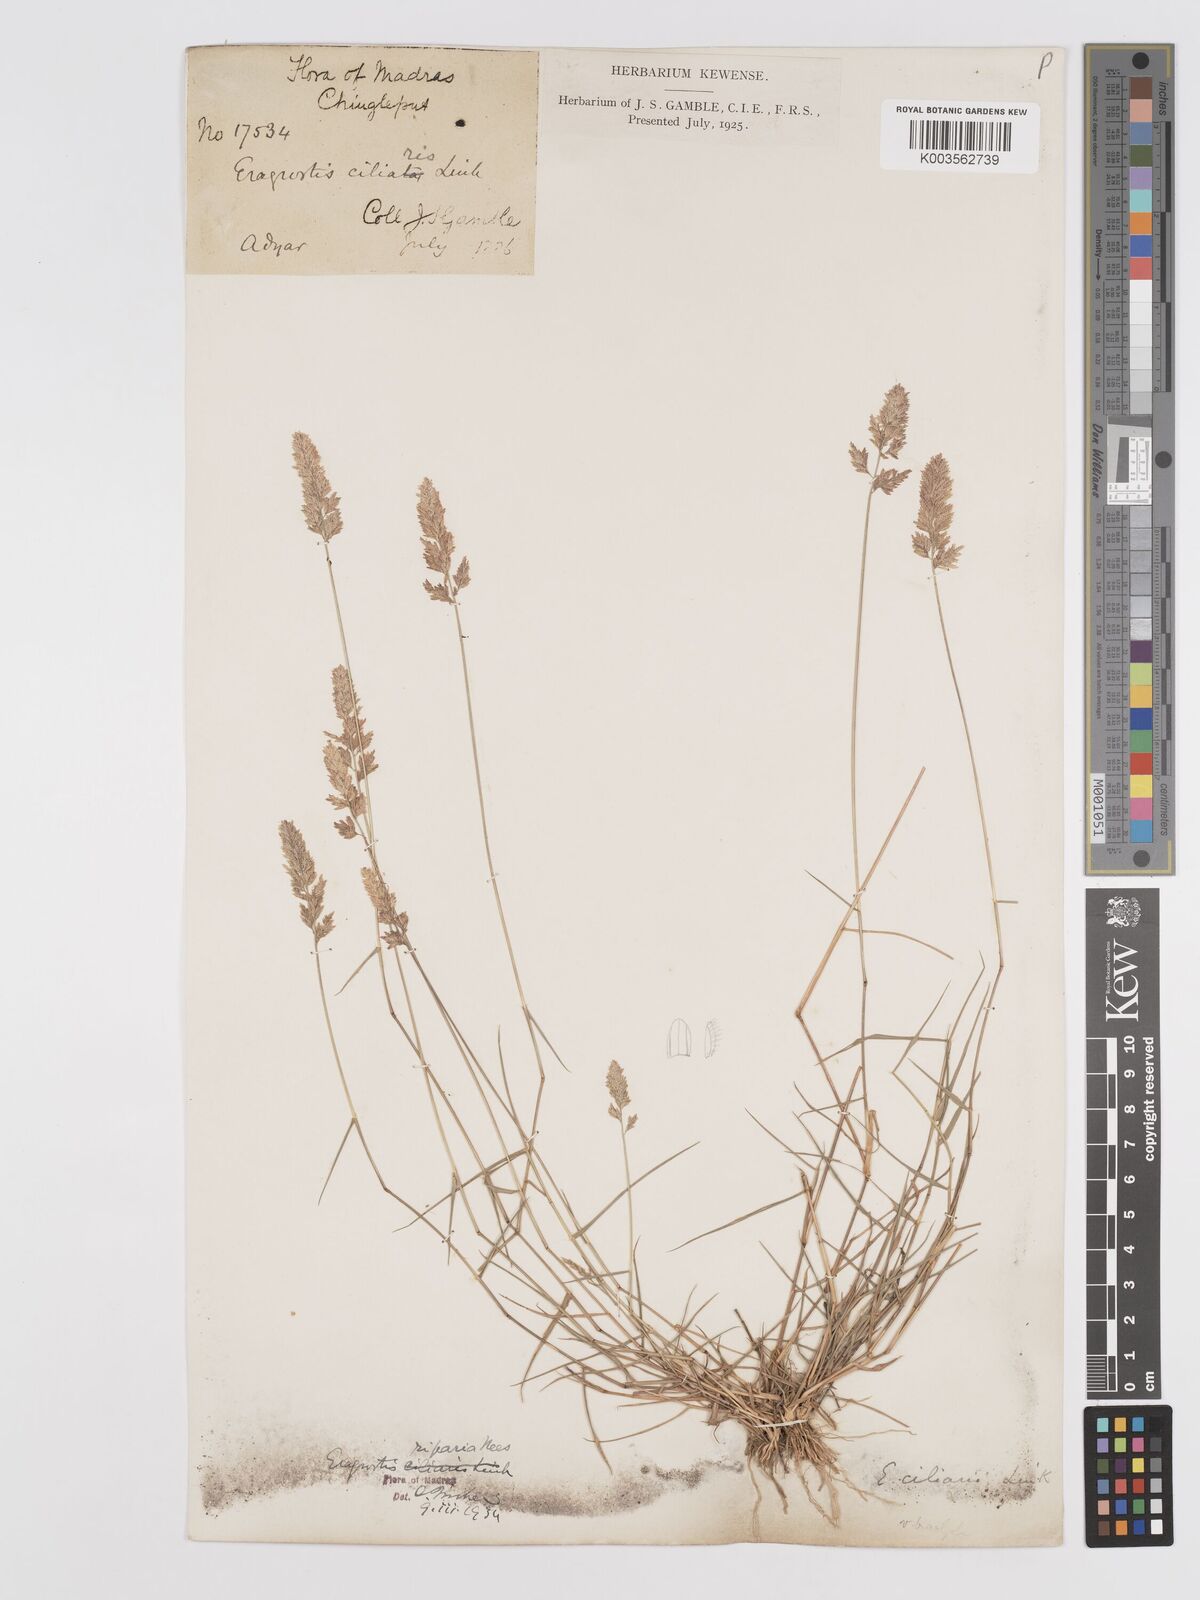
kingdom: Plantae
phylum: Tracheophyta
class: Liliopsida
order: Poales
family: Poaceae
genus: Eragrostis
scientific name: Eragrostis riparia
